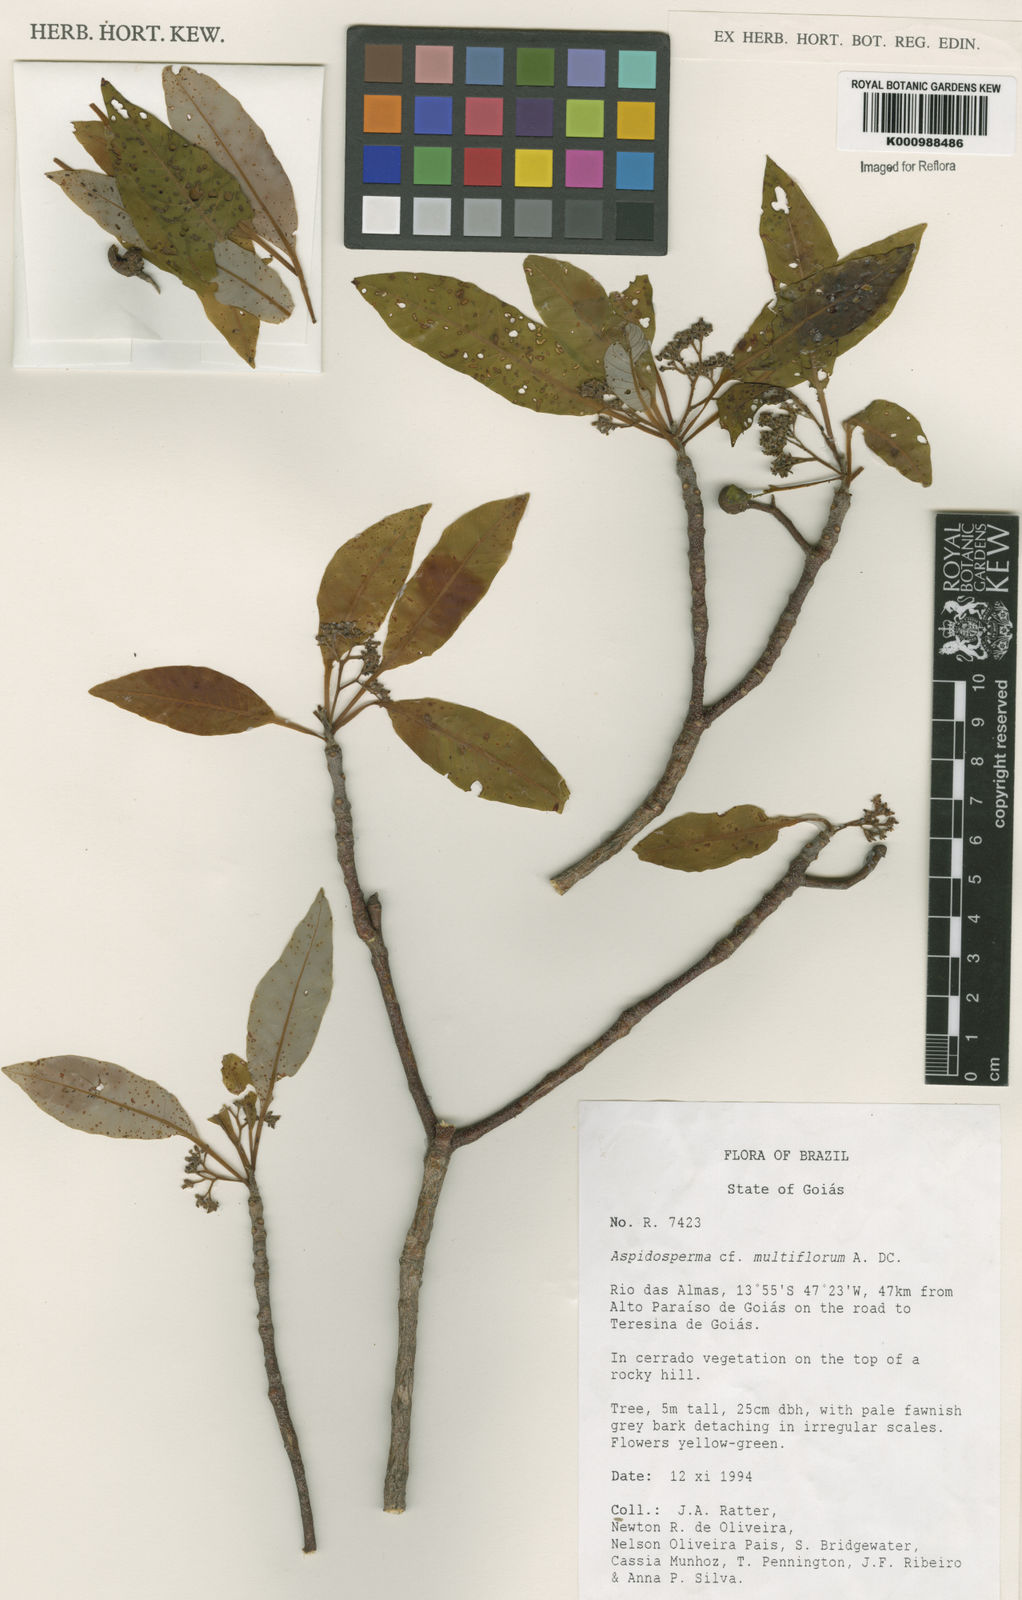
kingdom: Plantae
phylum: Tracheophyta
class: Magnoliopsida
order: Gentianales
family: Apocynaceae
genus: Aspidosperma
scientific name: Aspidosperma multiflorum
